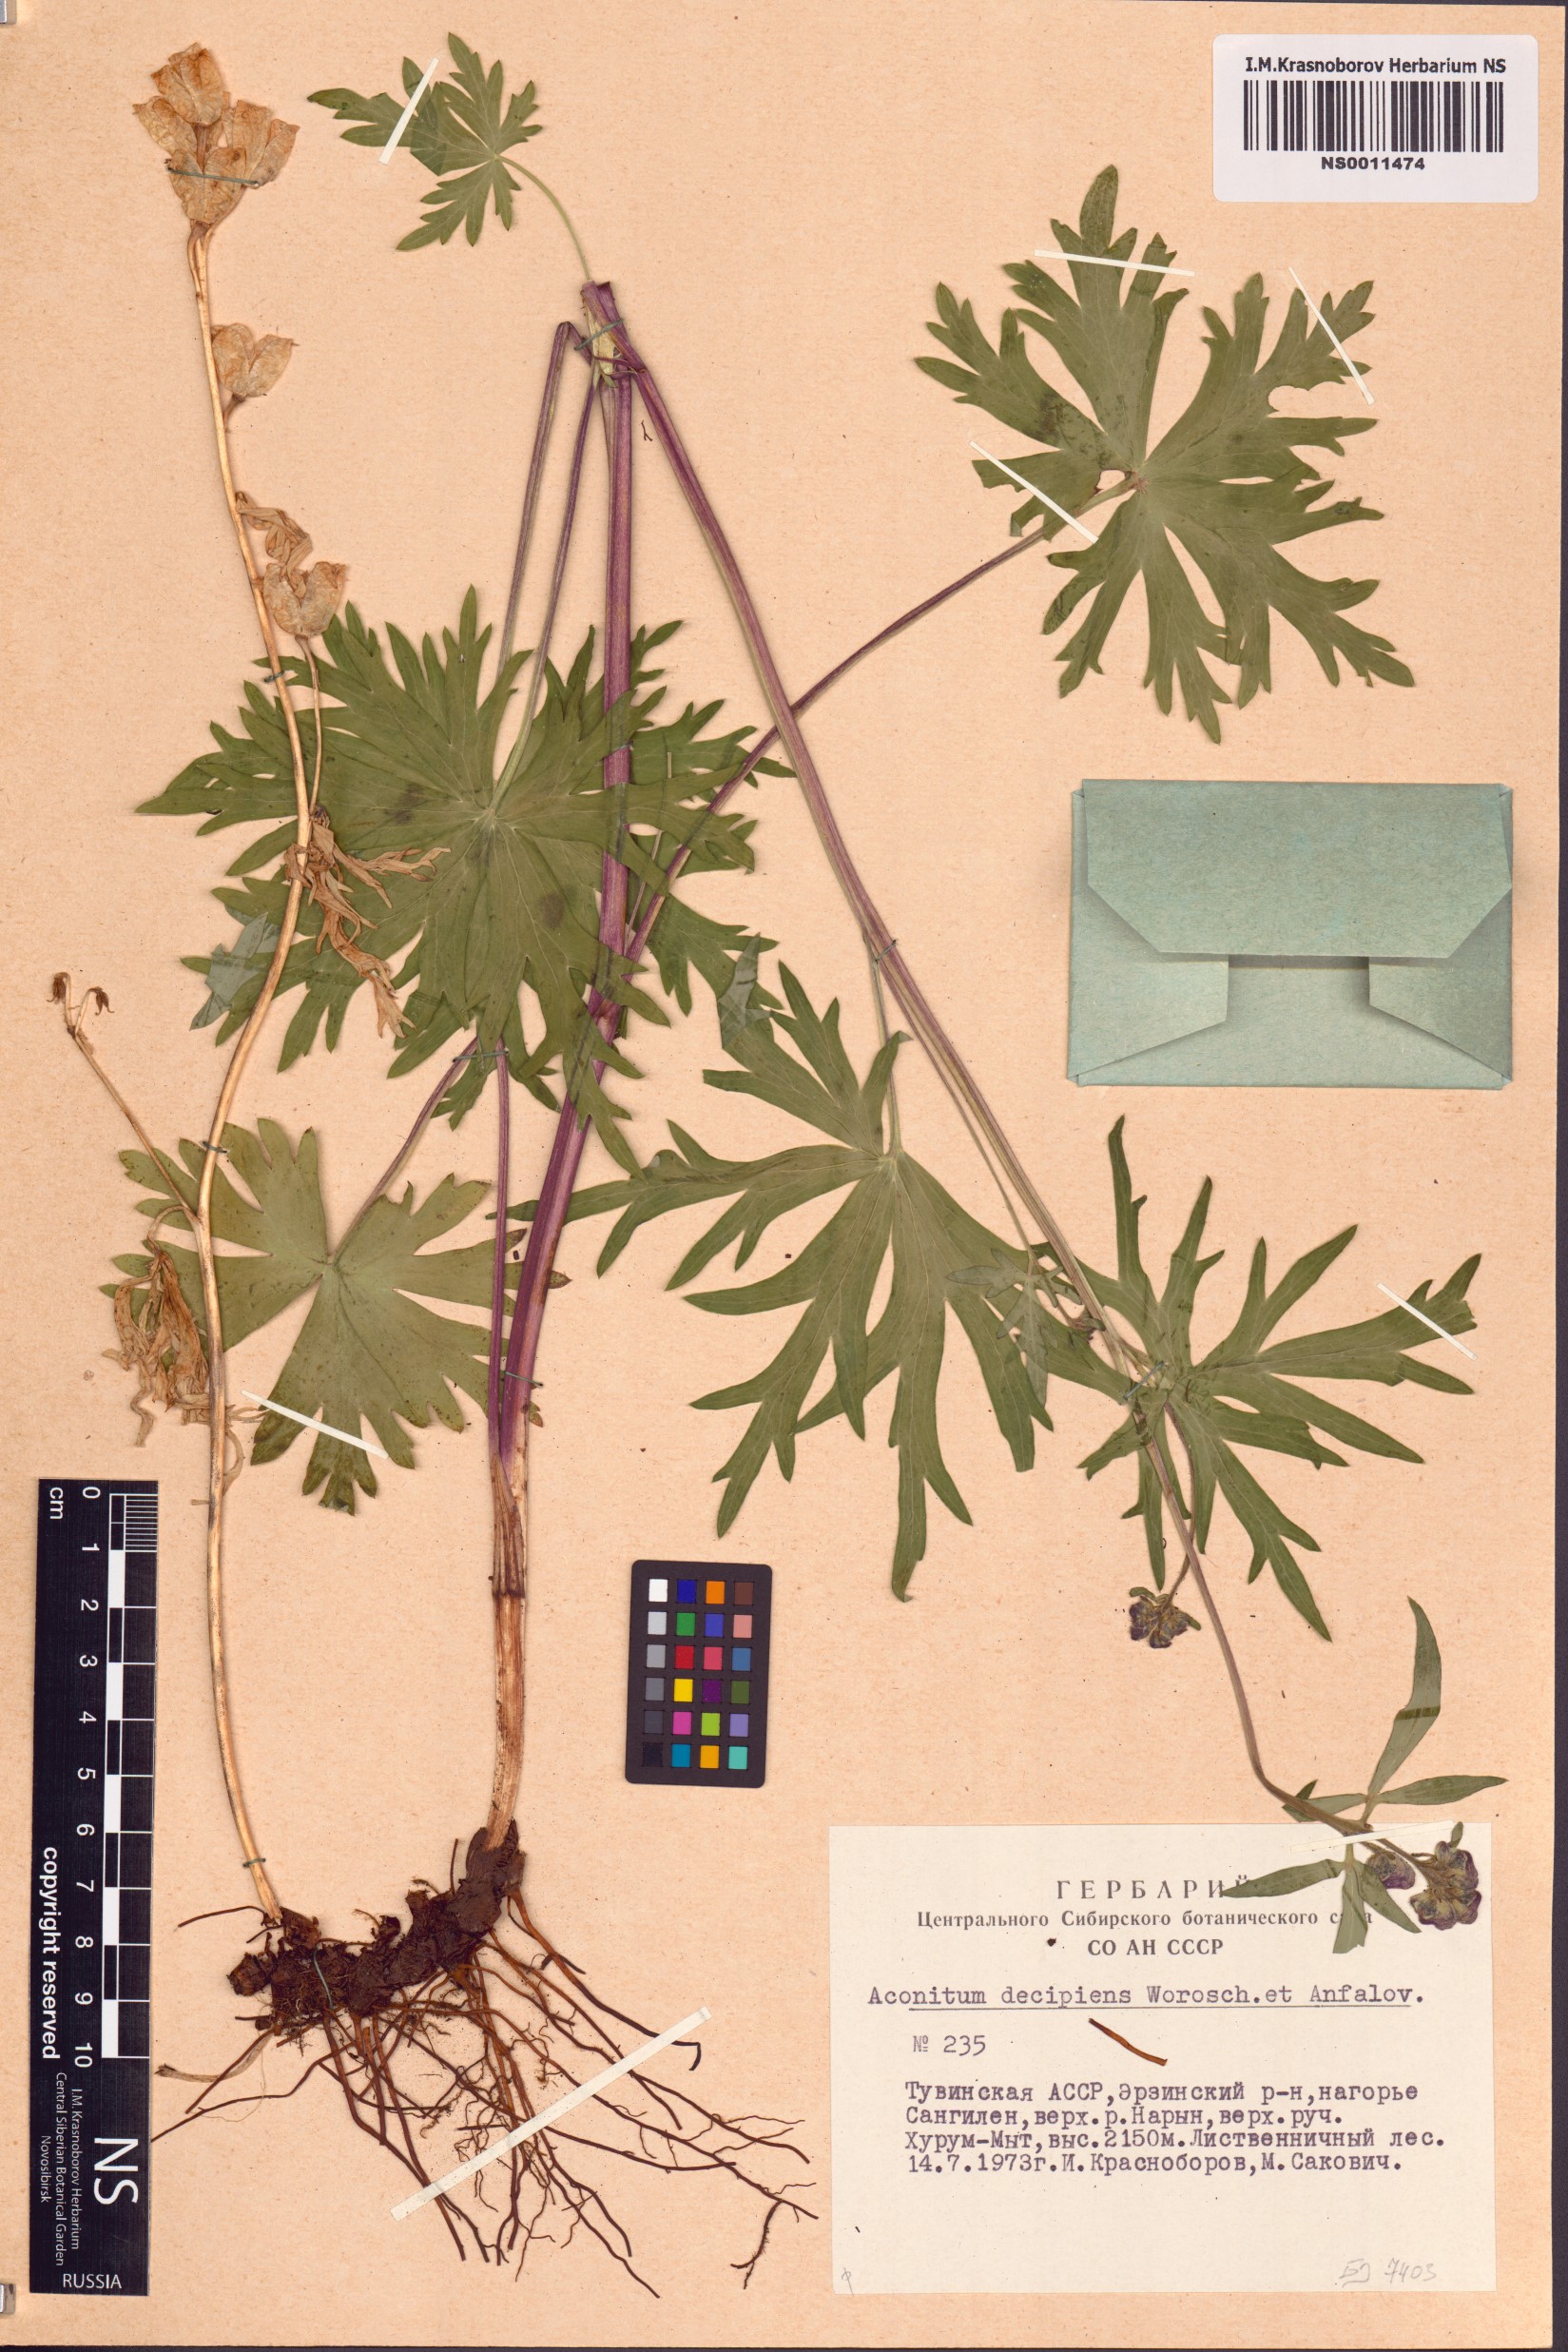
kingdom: Plantae
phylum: Tracheophyta
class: Magnoliopsida
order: Ranunculales
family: Ranunculaceae
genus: Aconitum
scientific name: Aconitum decipiens
